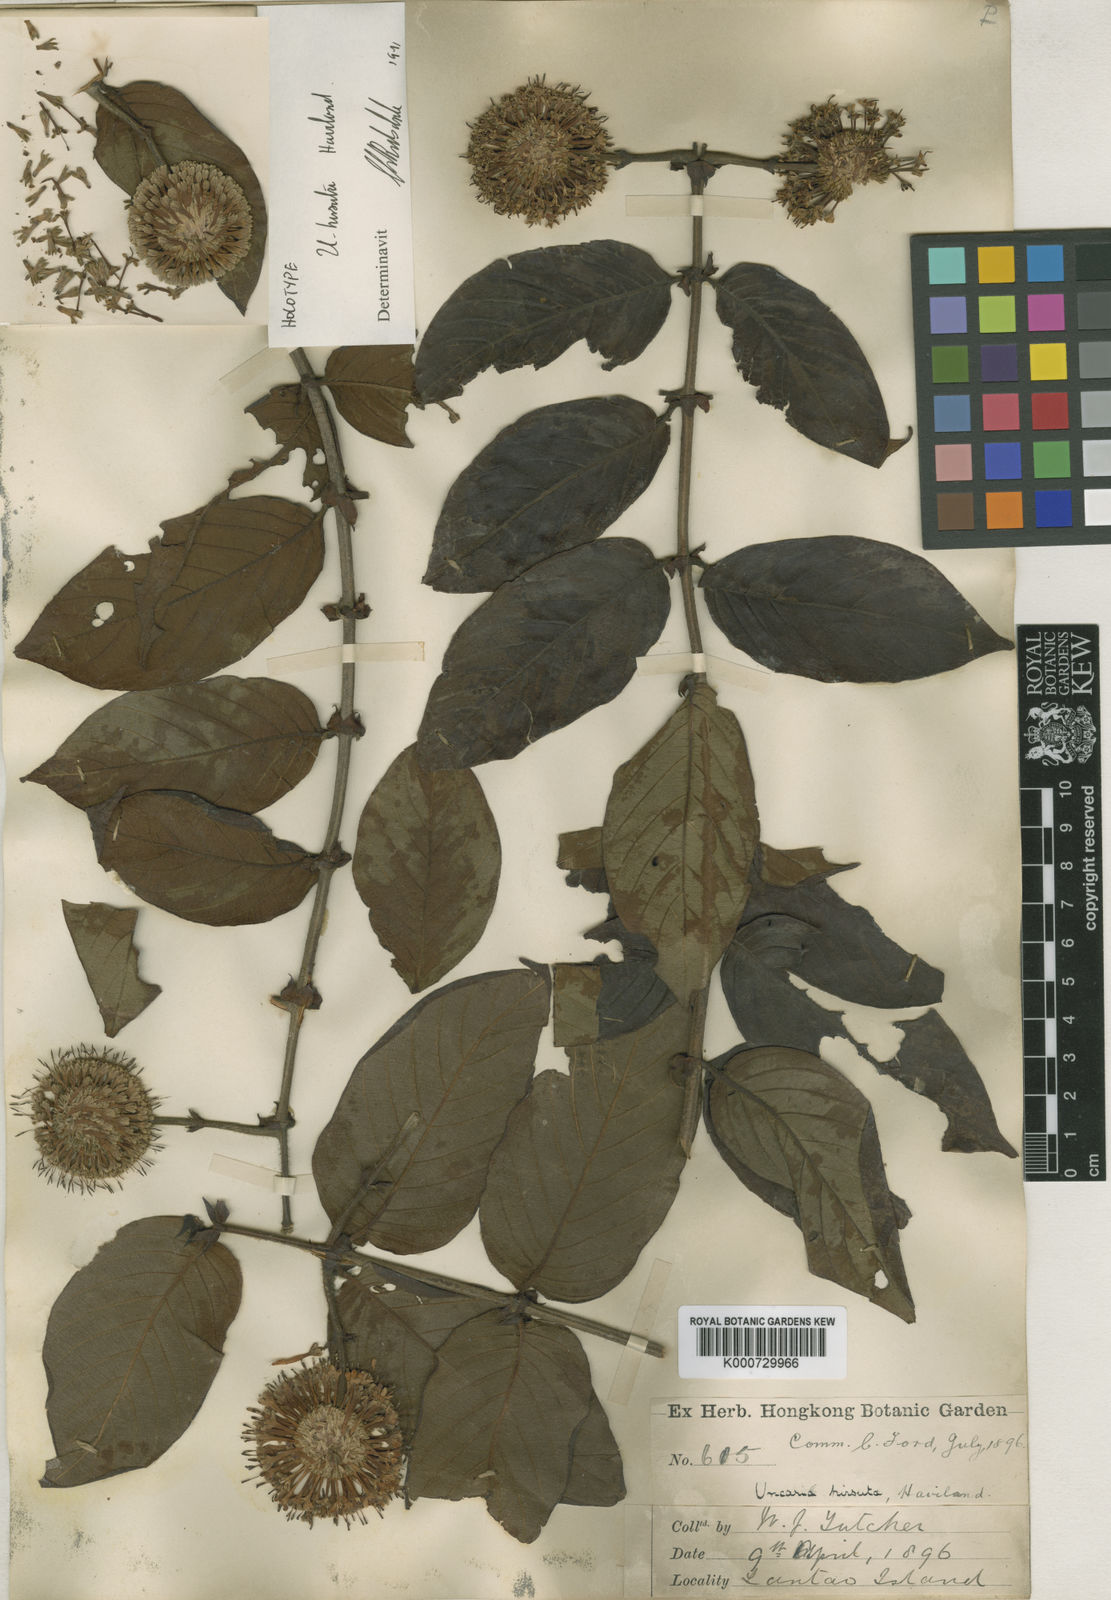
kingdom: Plantae
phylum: Tracheophyta
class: Magnoliopsida
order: Gentianales
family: Rubiaceae
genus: Uncaria
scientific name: Uncaria hirsuta
